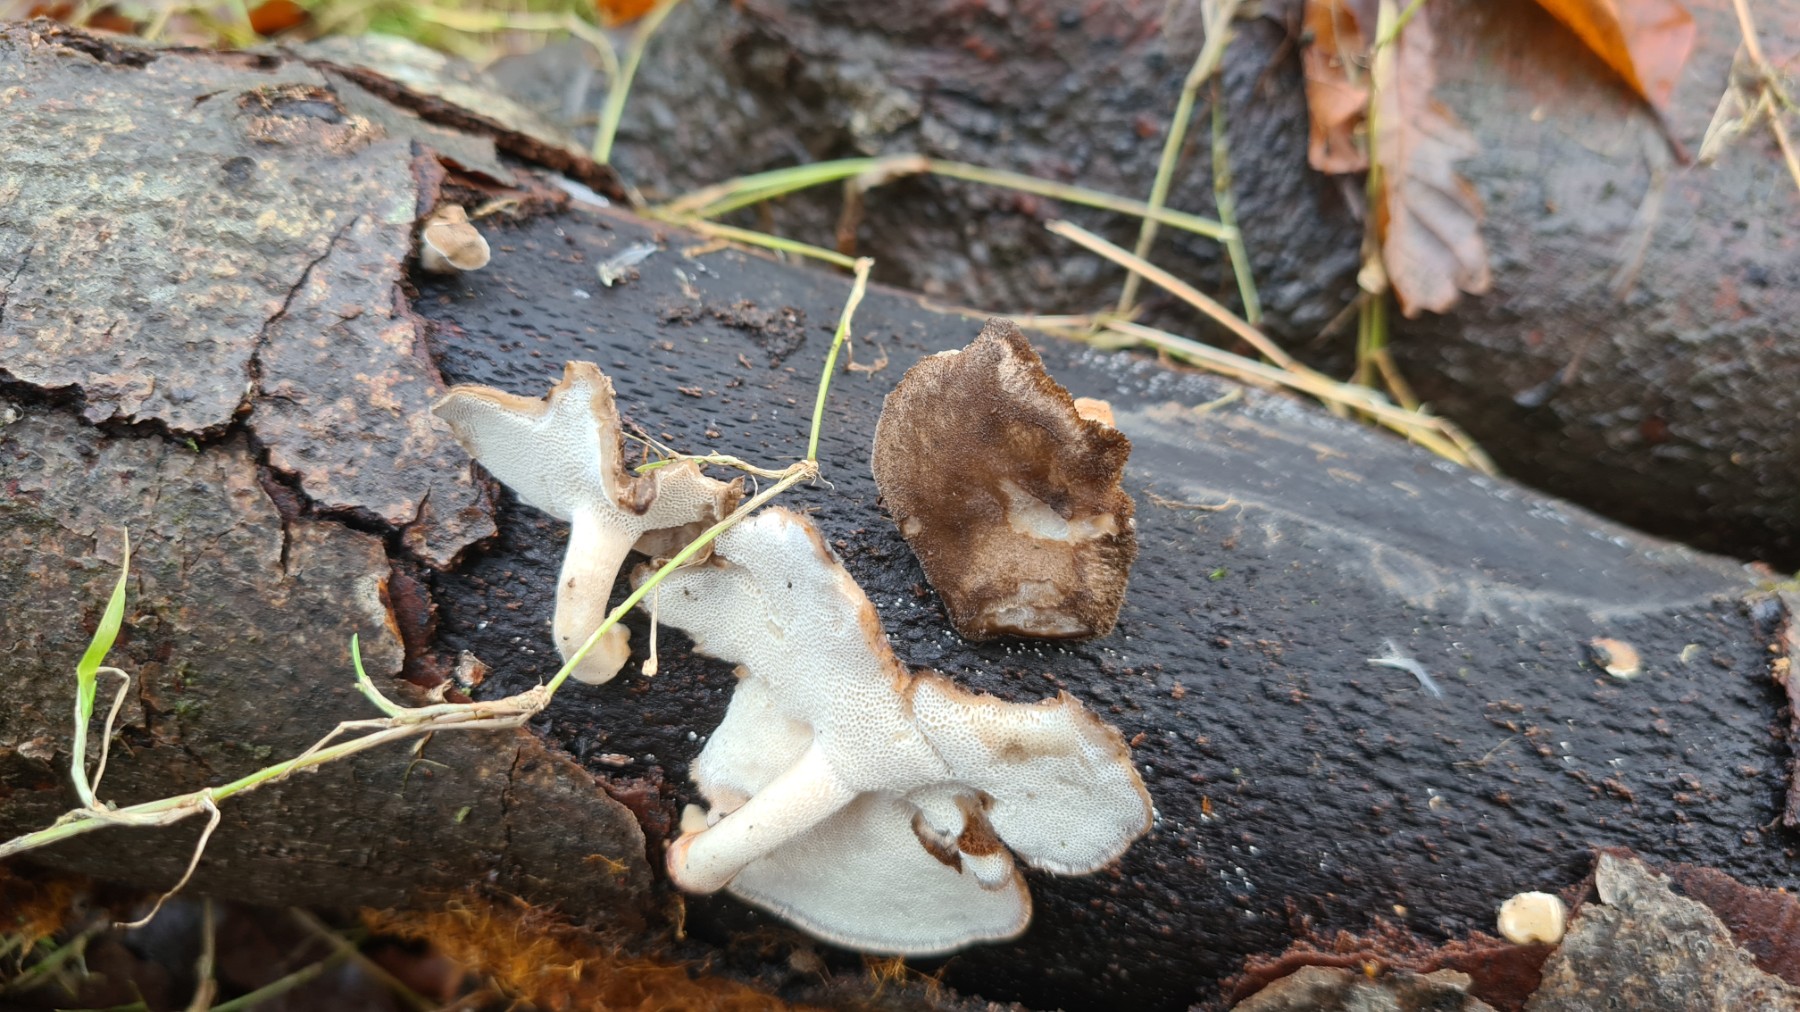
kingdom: Fungi
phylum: Basidiomycota
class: Agaricomycetes
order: Polyporales
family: Polyporaceae
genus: Lentinus
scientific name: Lentinus brumalis
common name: vinter-stilkporesvamp
